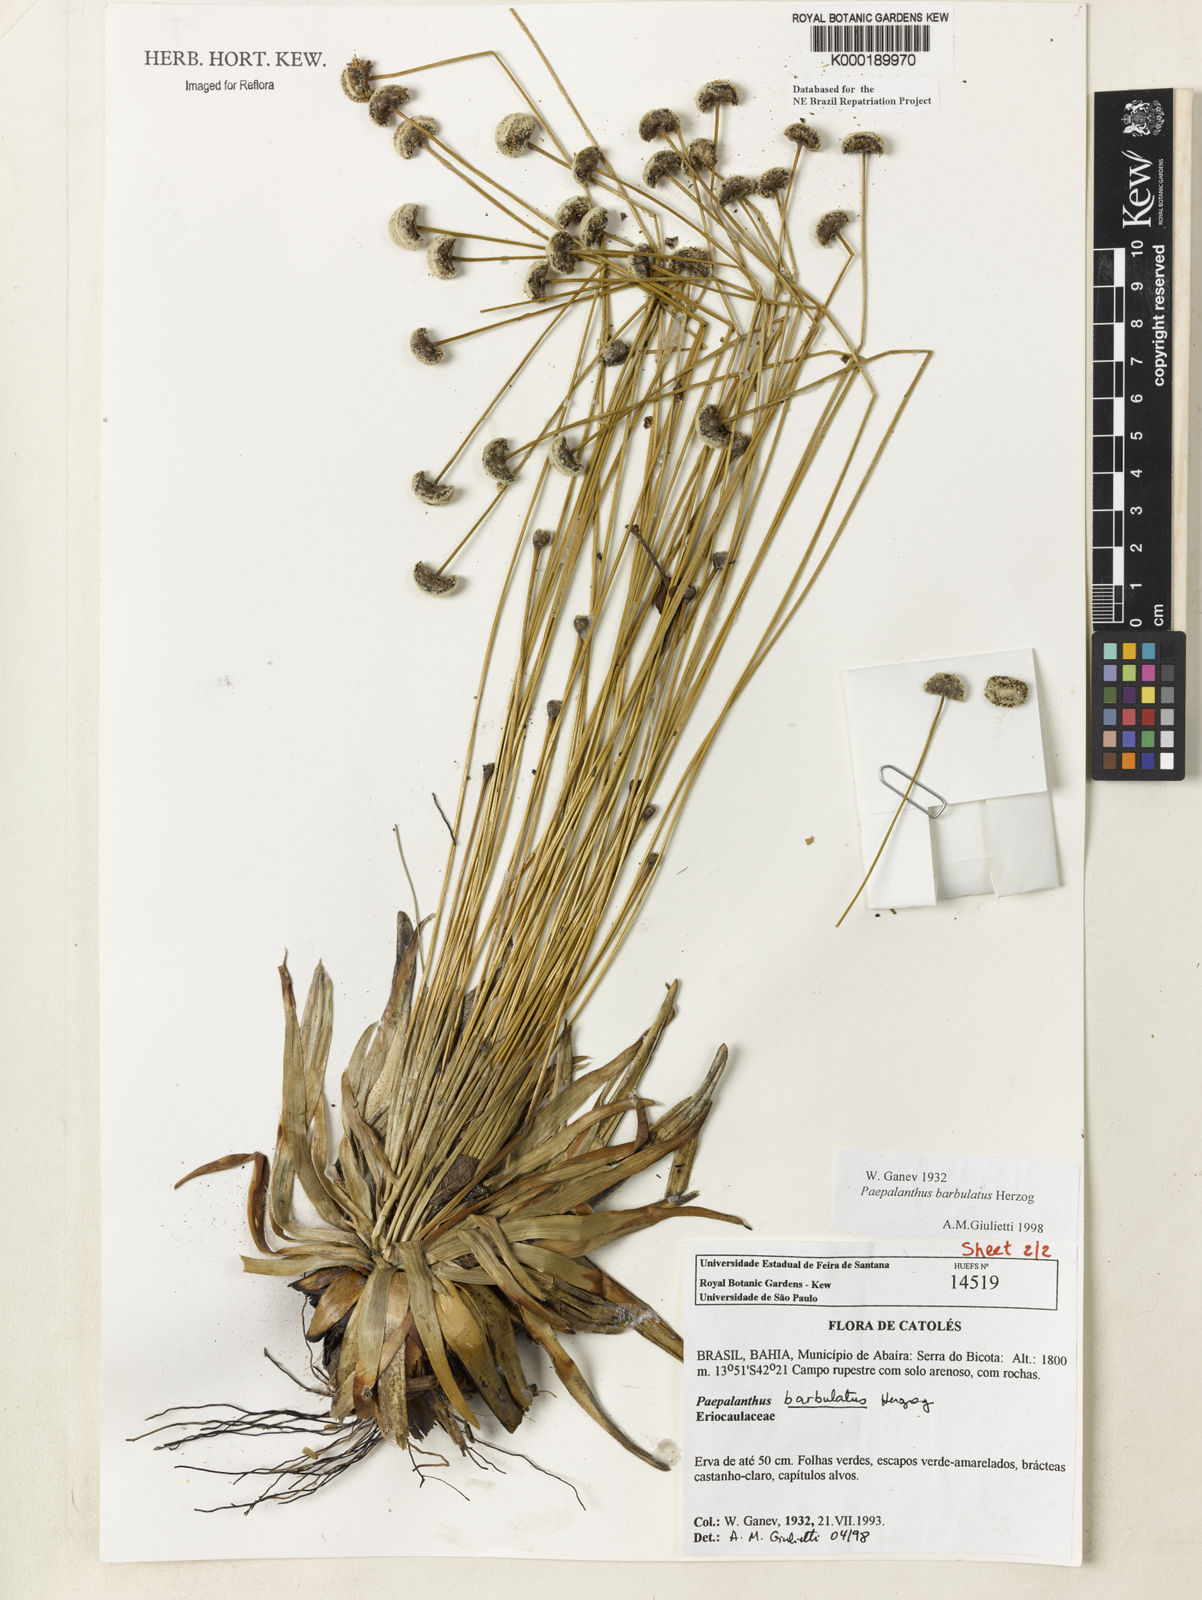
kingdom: Plantae
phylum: Tracheophyta
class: Liliopsida
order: Poales
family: Eriocaulaceae
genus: Paepalanthus
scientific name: Paepalanthus barbulatus
